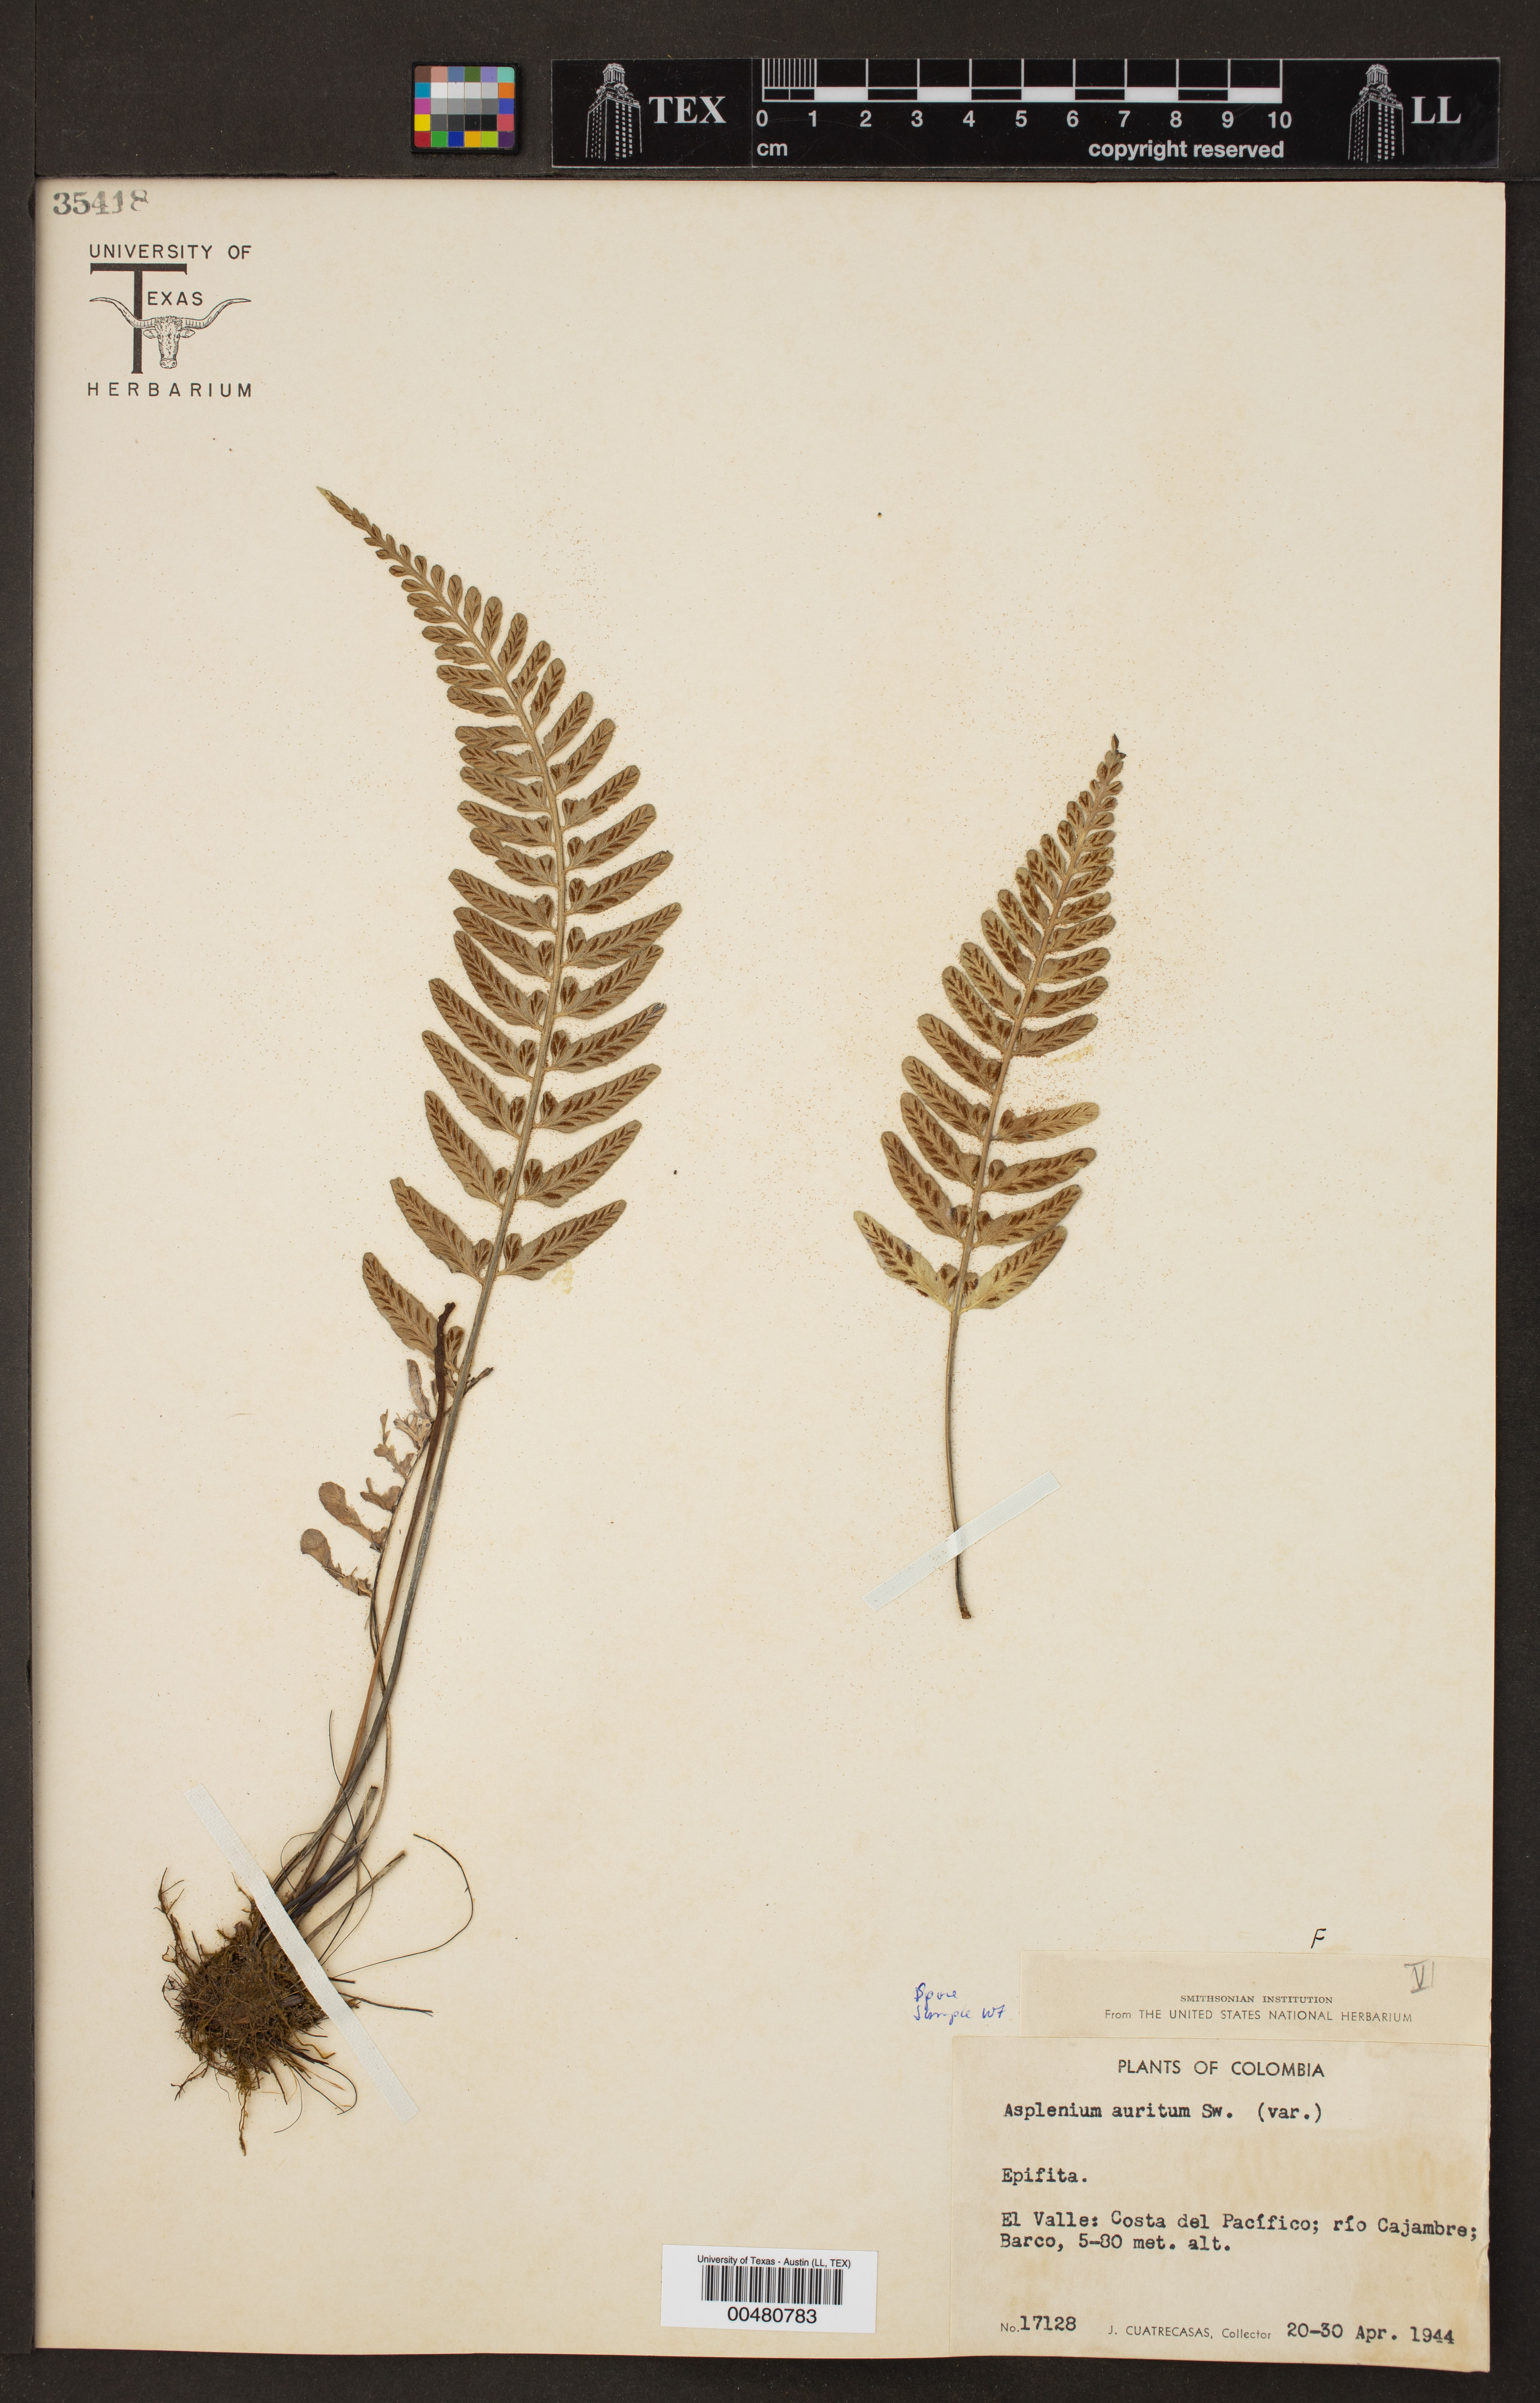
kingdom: Plantae
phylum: Tracheophyta
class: Polypodiopsida
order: Polypodiales
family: Aspleniaceae
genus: Asplenium
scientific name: Asplenium auritum
